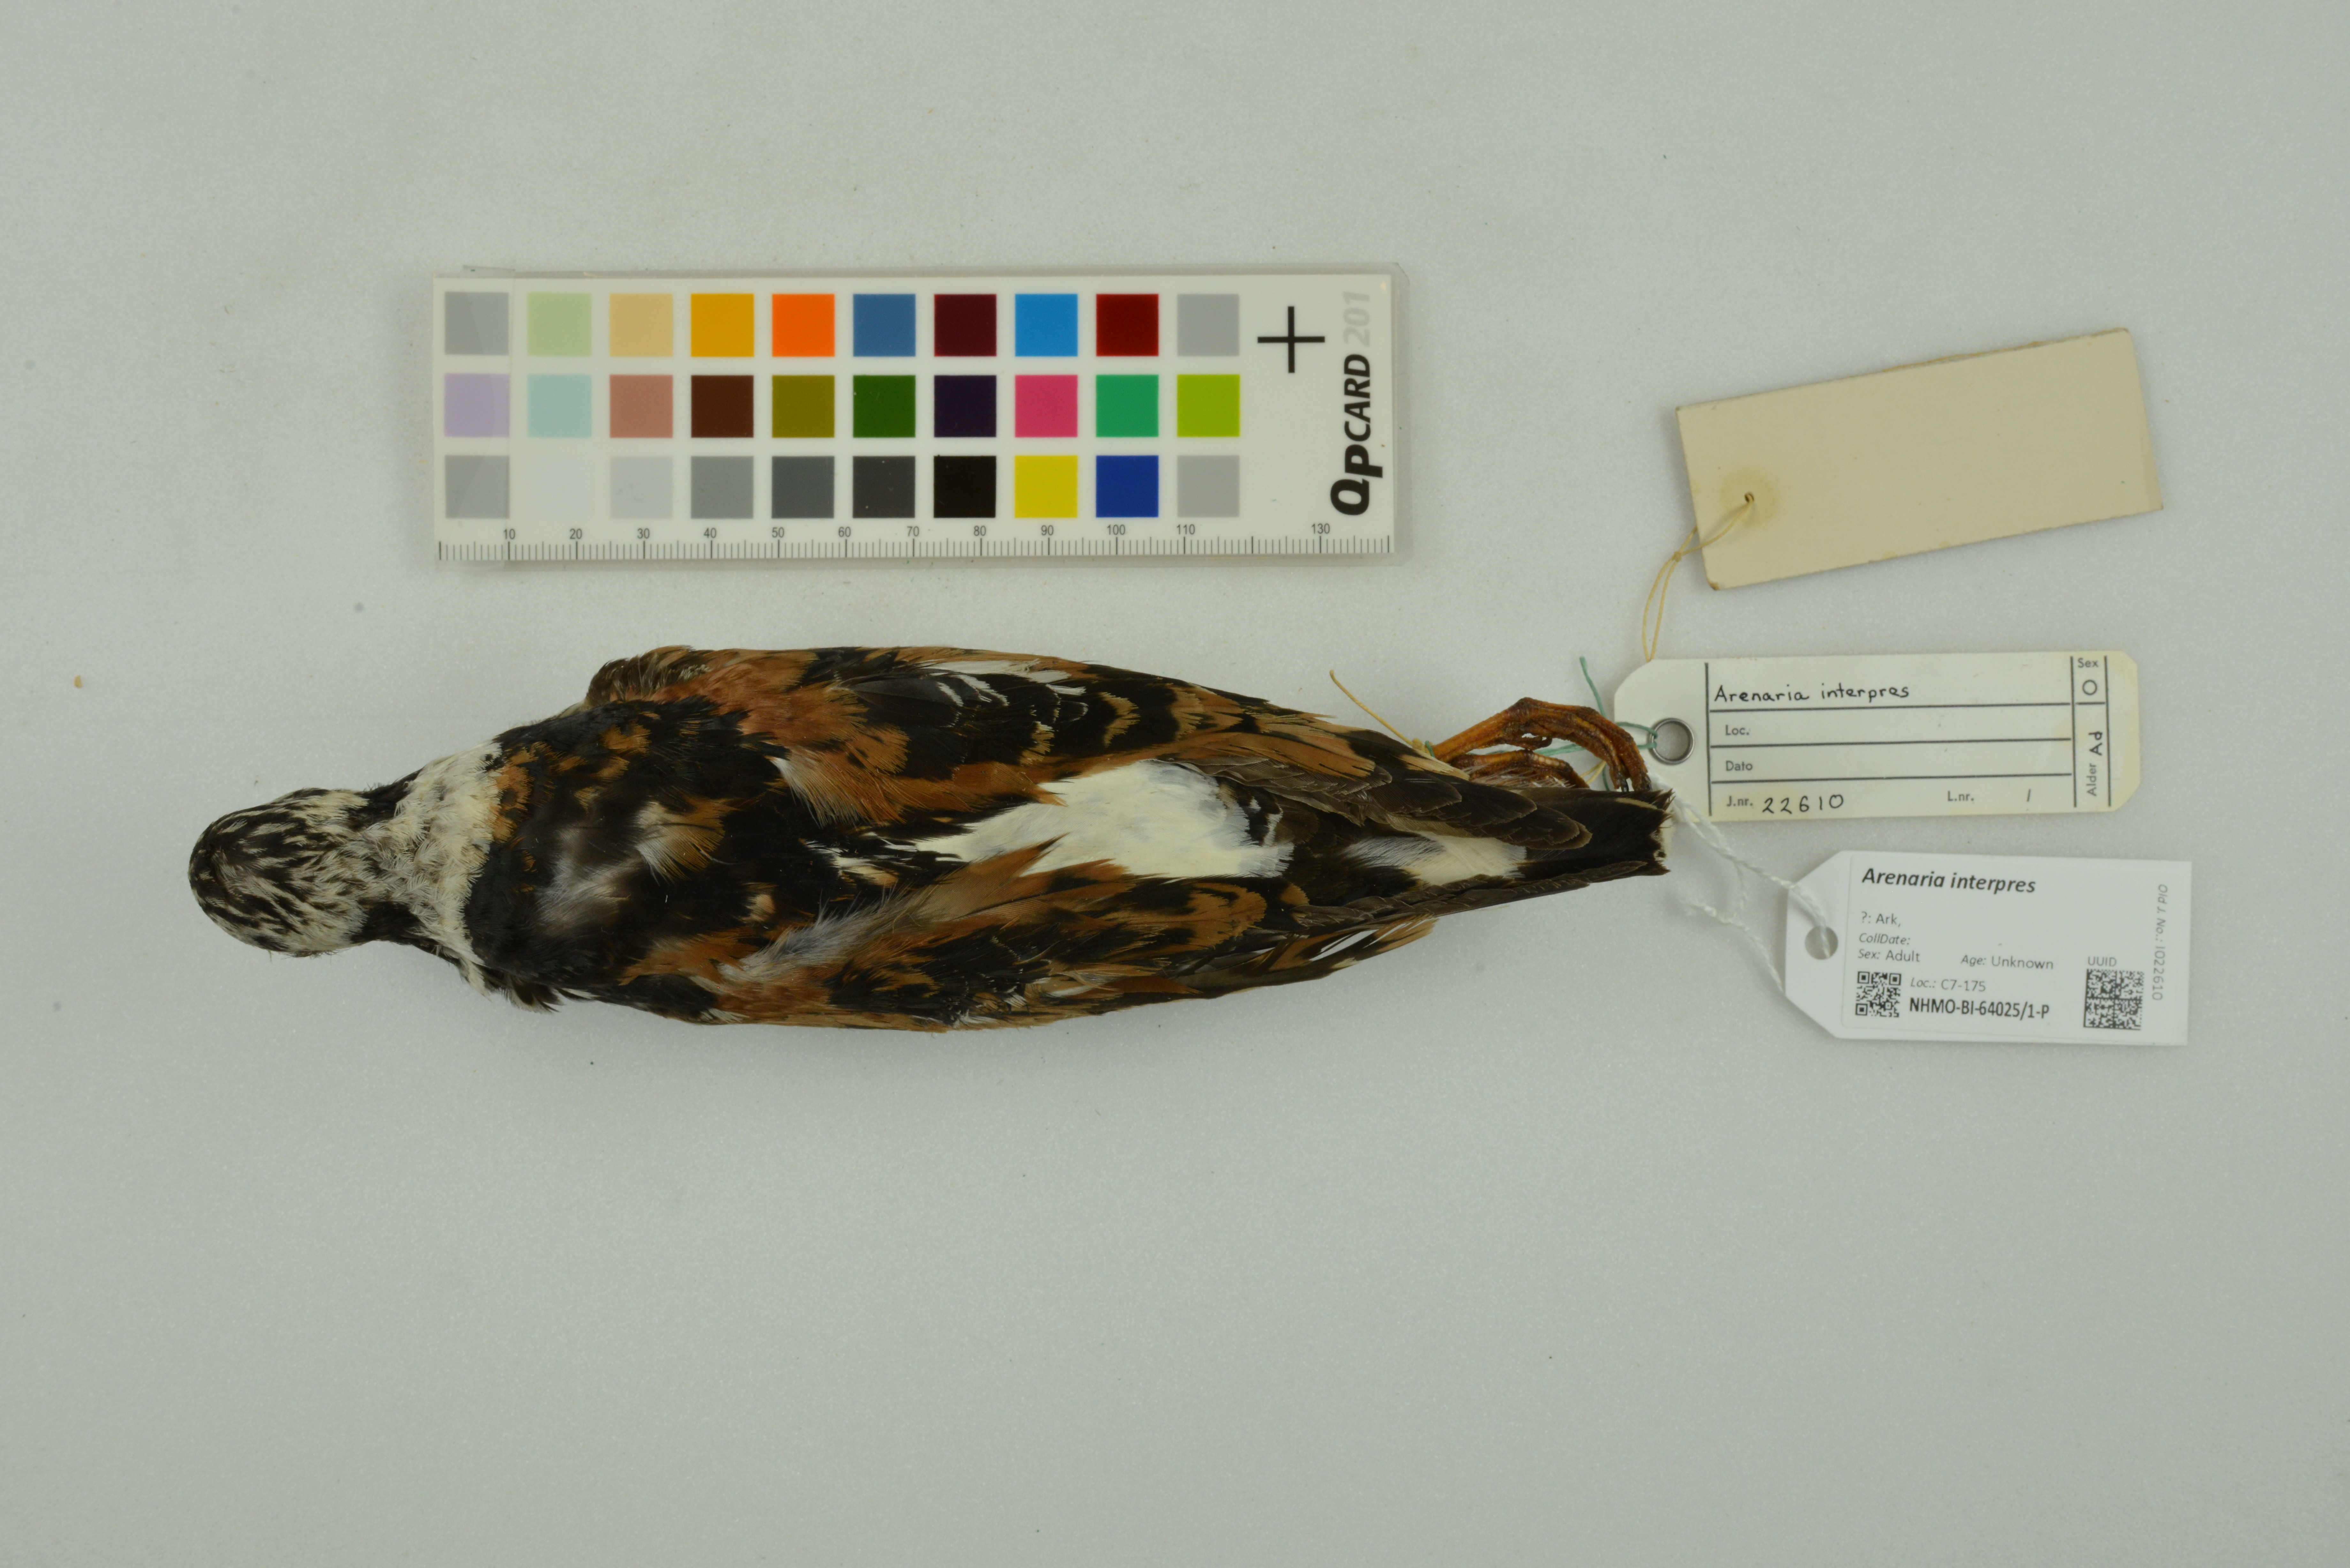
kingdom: Animalia
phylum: Chordata
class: Aves
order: Charadriiformes
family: Scolopacidae
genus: Arenaria
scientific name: Arenaria interpres
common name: Ruddy turnstone
